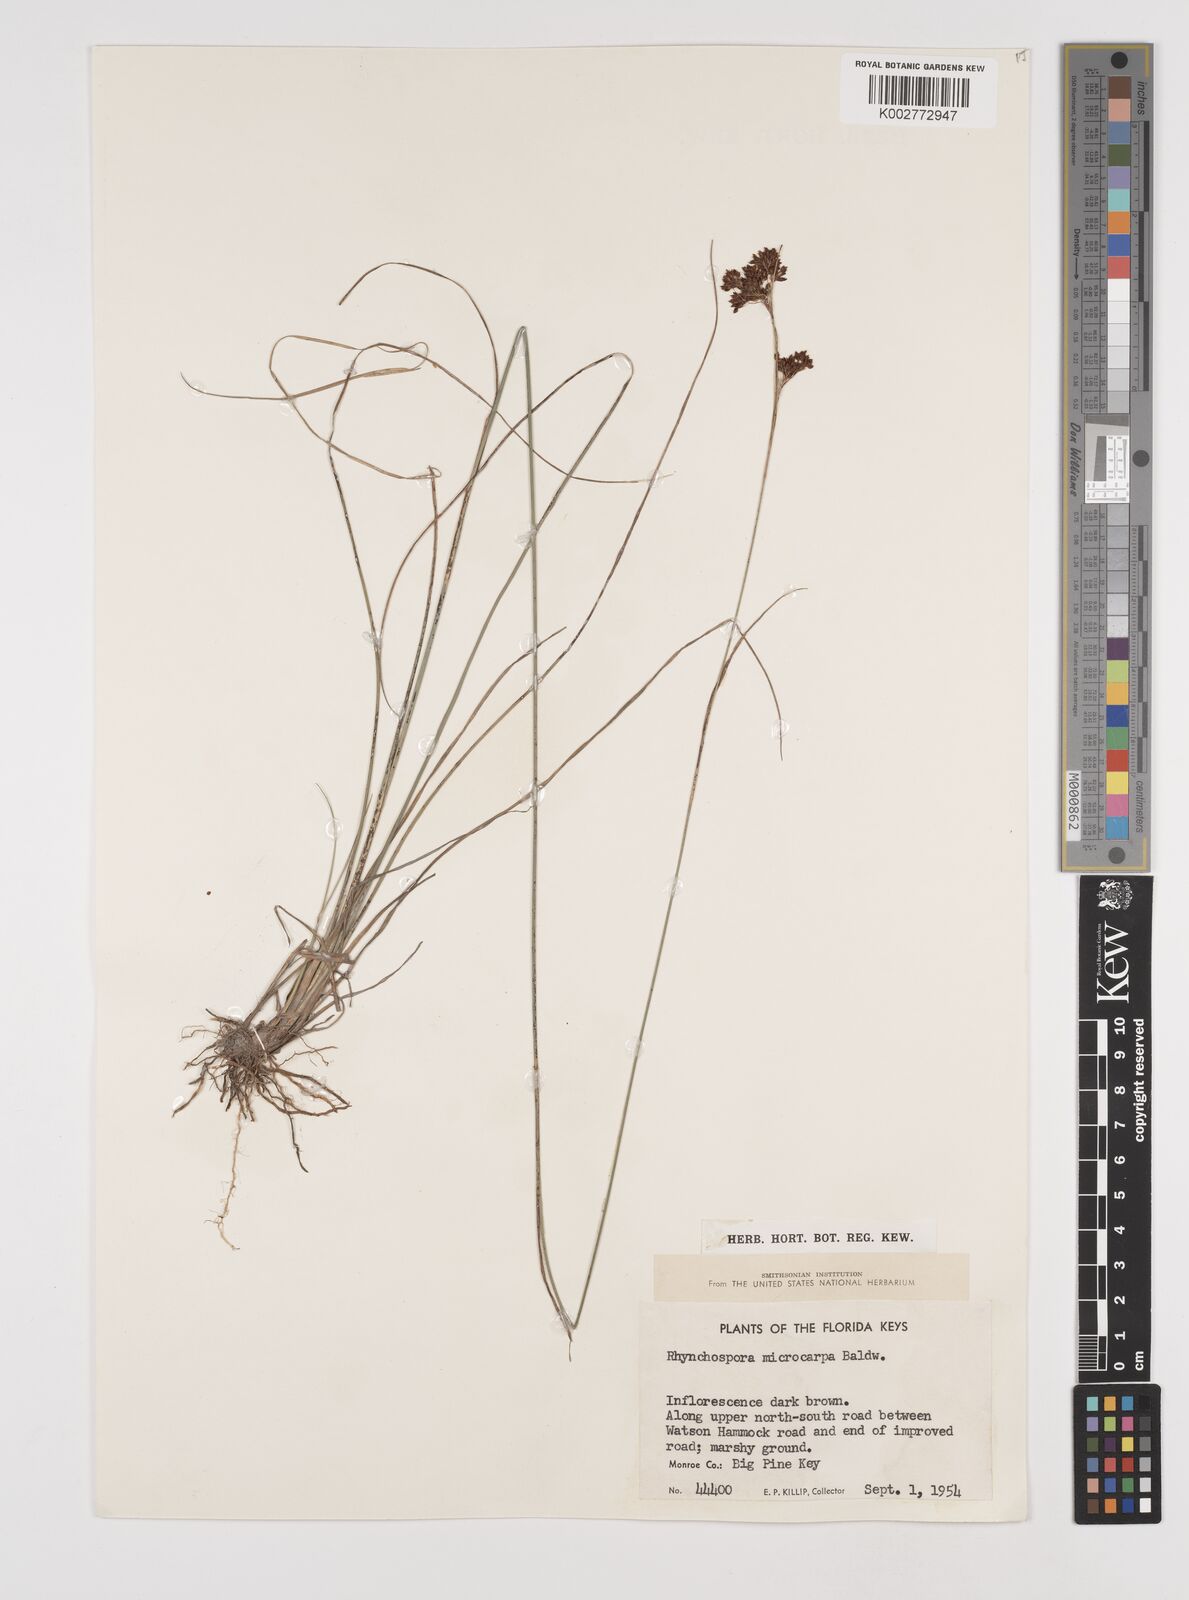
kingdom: Plantae
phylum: Tracheophyta
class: Liliopsida
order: Poales
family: Cyperaceae
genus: Rhynchospora
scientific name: Rhynchospora microcarpa
